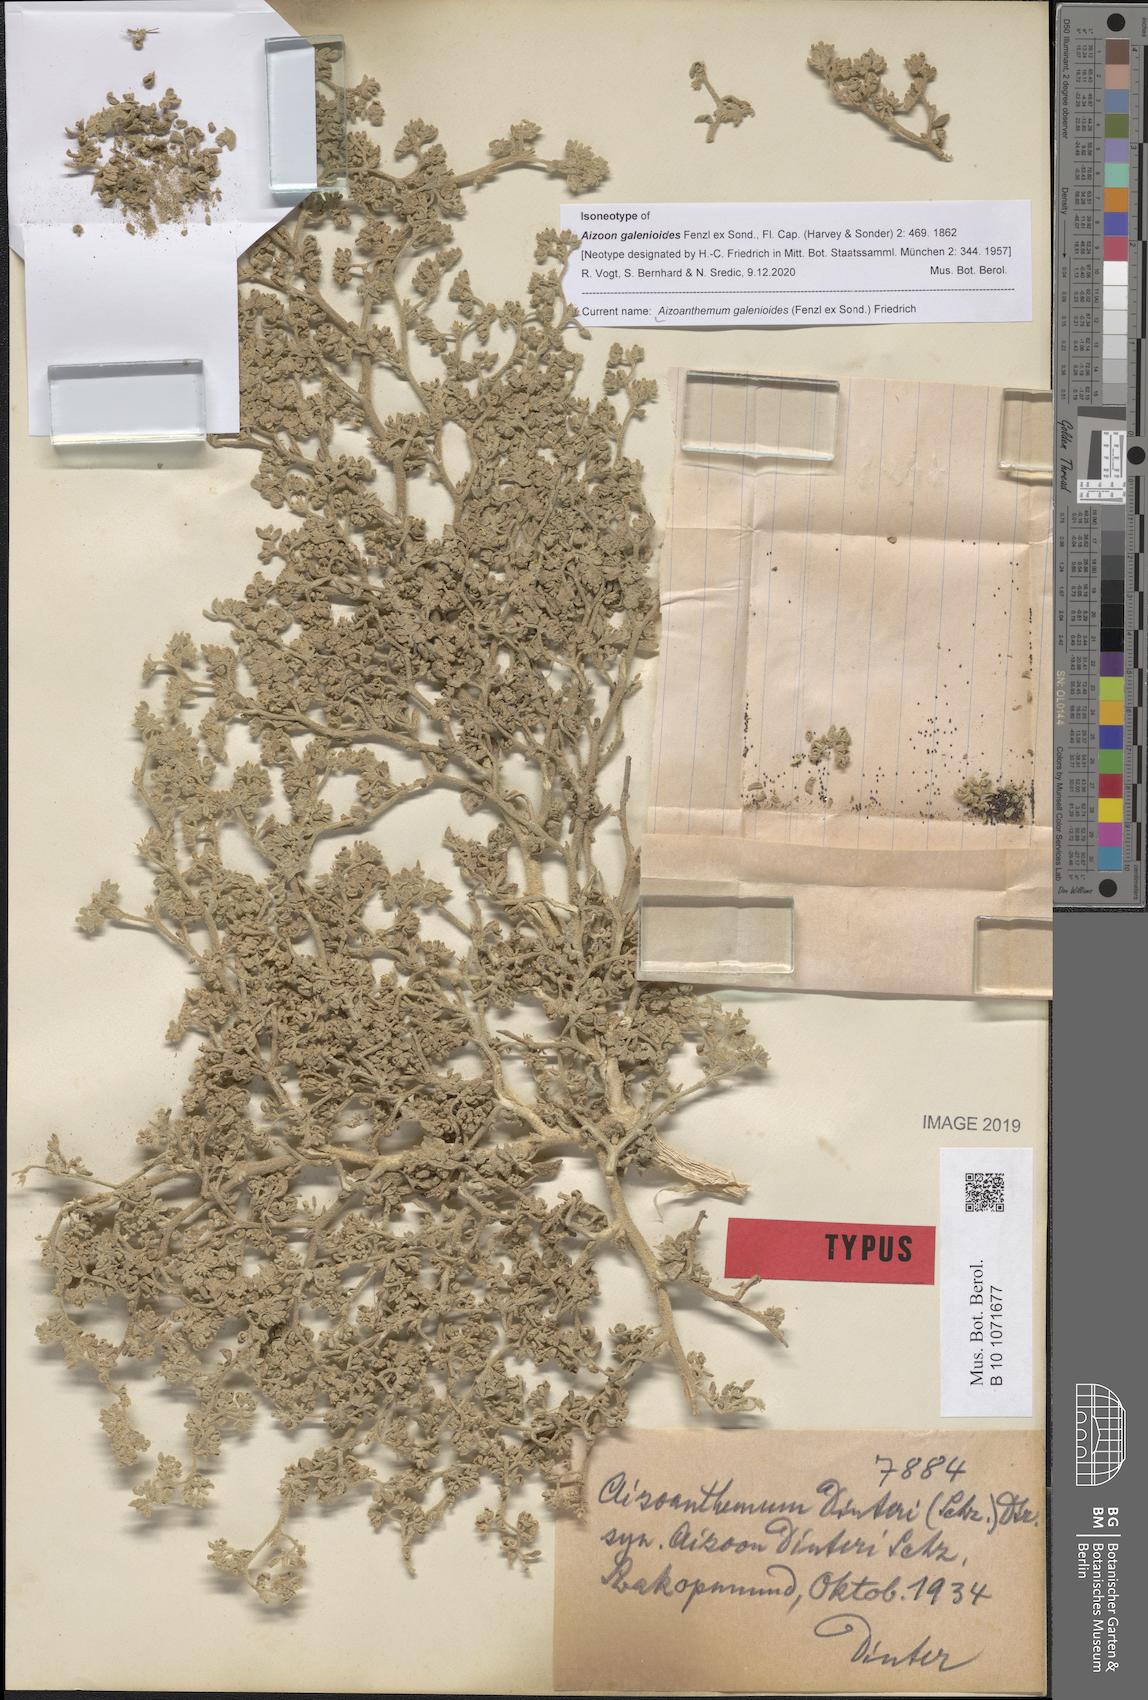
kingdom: Plantae
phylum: Tracheophyta
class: Magnoliopsida
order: Caryophyllales
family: Aizoaceae
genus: Aizoanthemum
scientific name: Aizoanthemum galenioides
